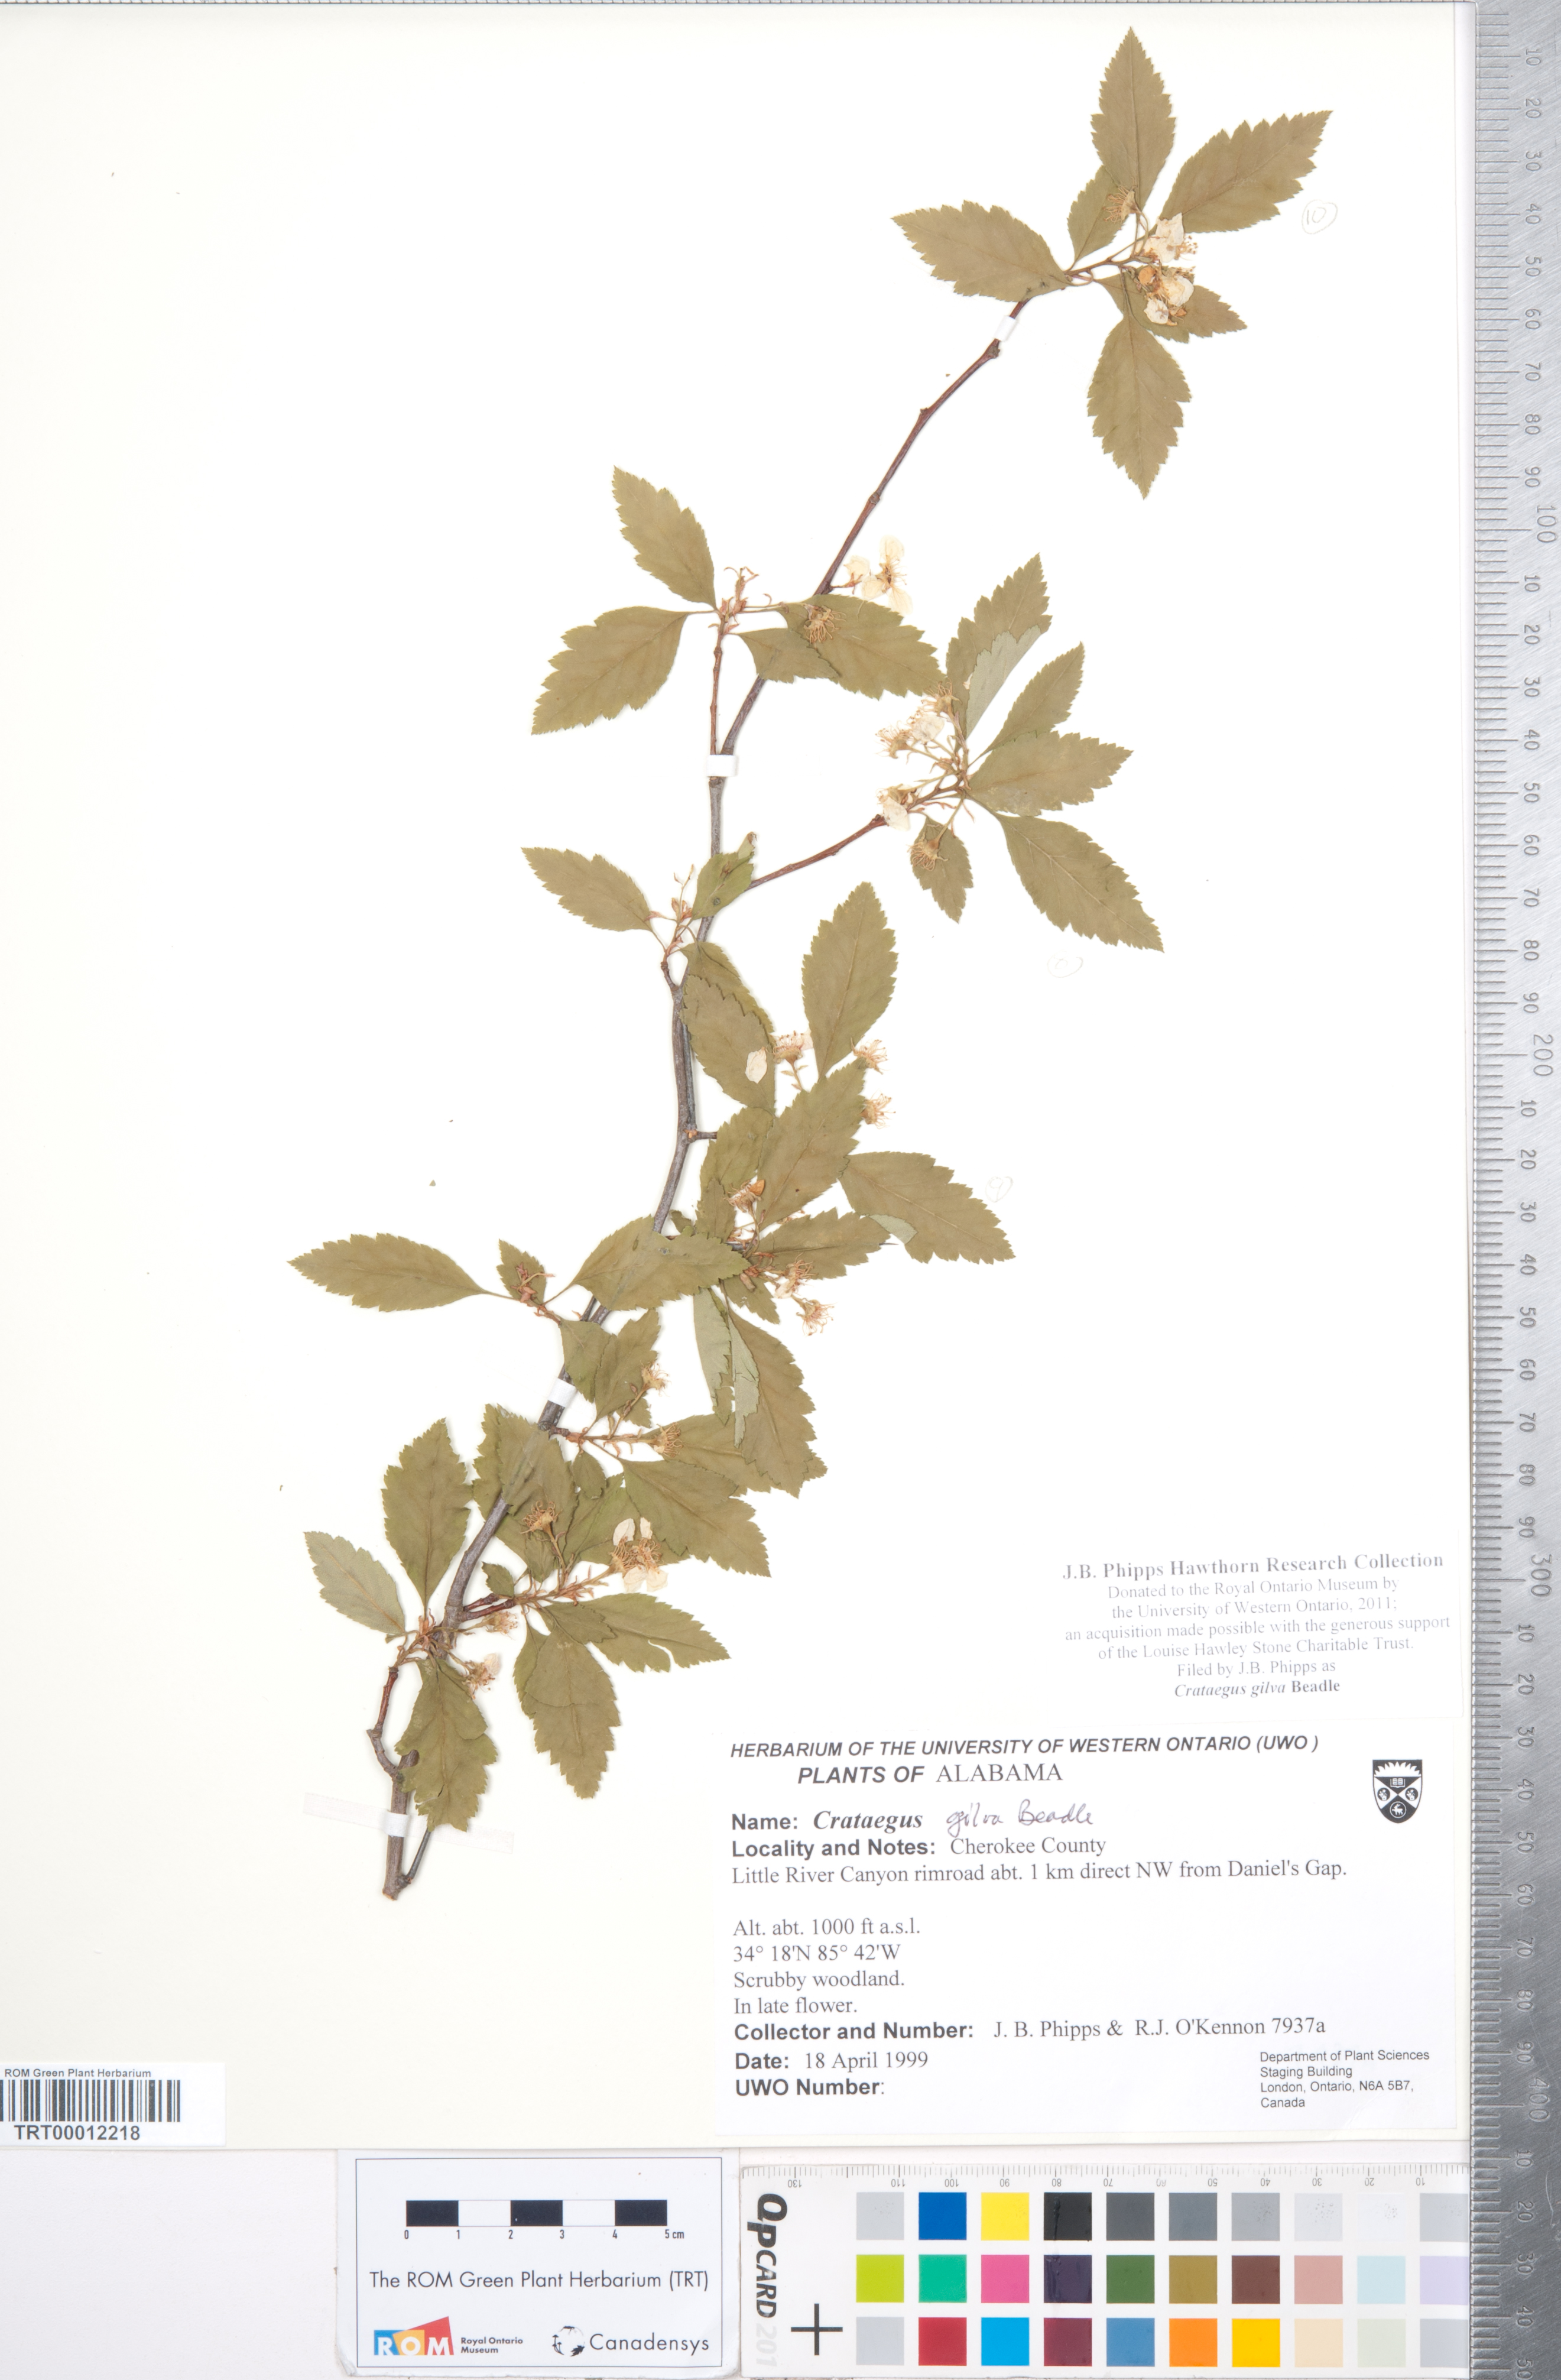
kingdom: Plantae
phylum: Tracheophyta
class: Magnoliopsida
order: Rosales
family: Rosaceae
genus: Crataegus
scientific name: Crataegus sargentii
